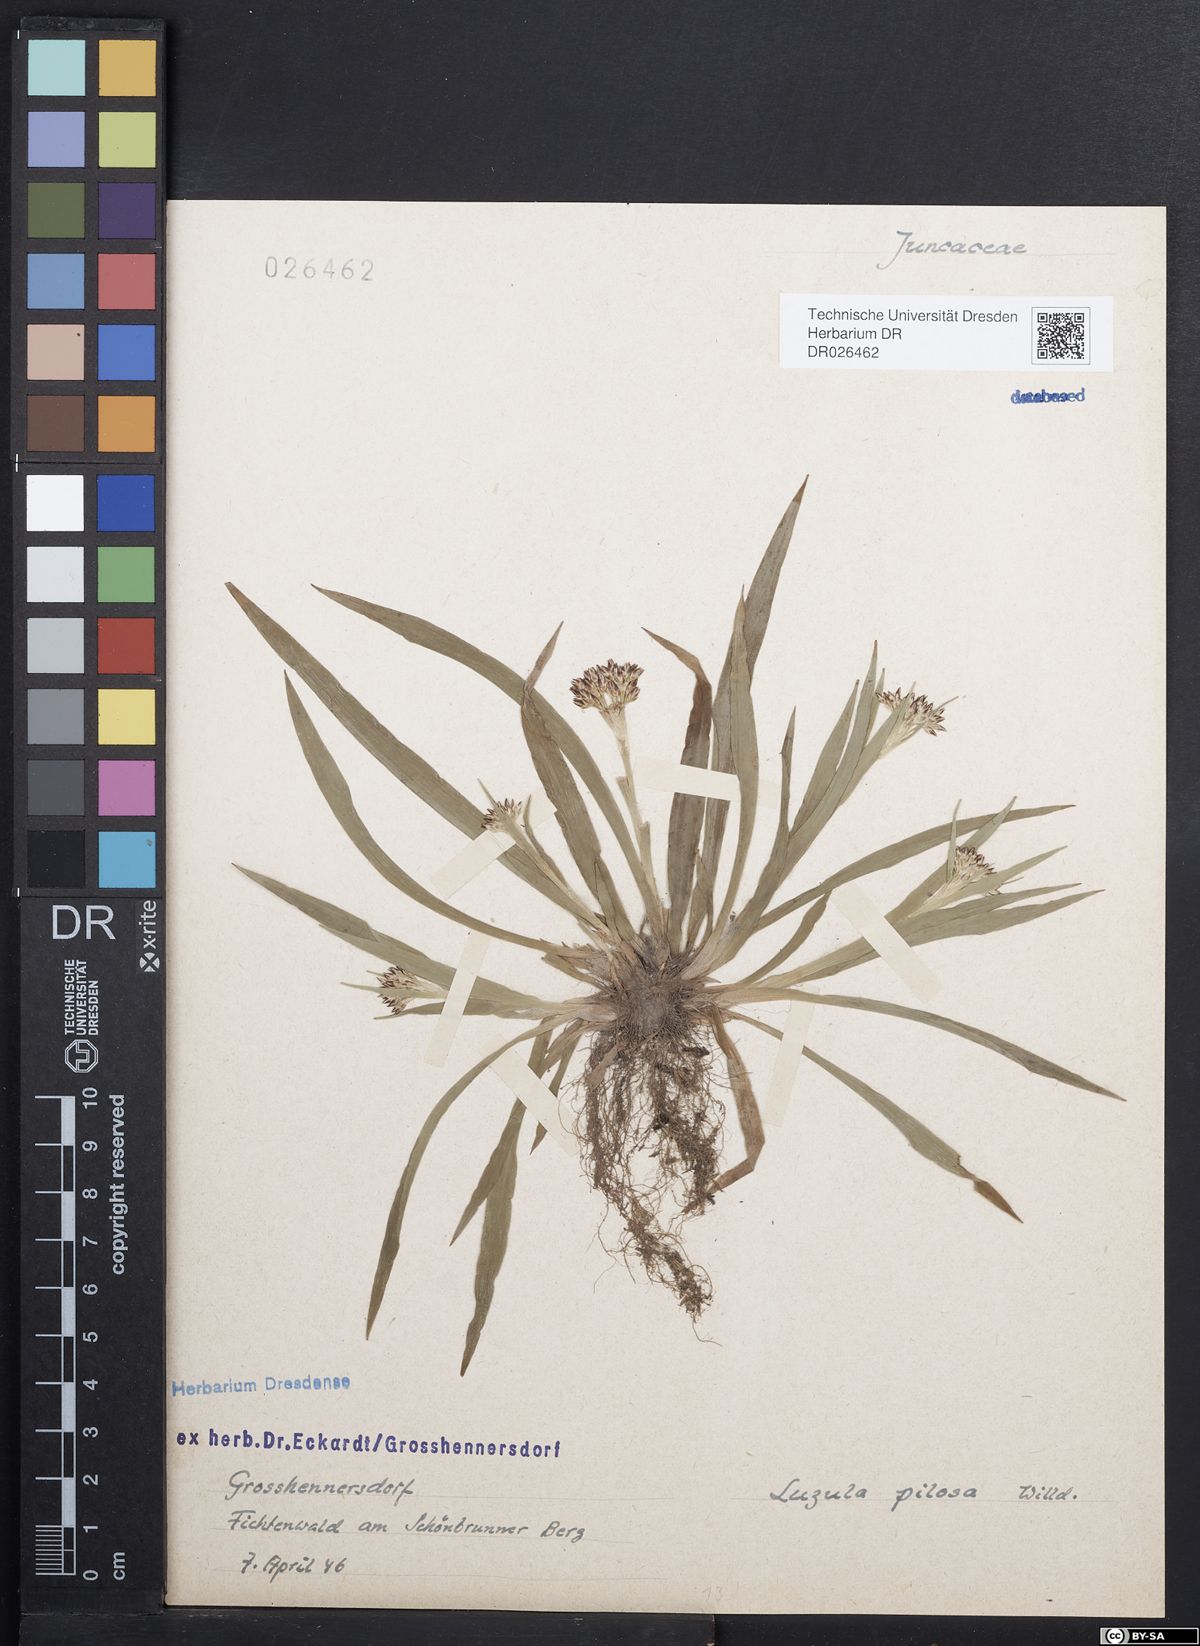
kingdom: Plantae
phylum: Tracheophyta
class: Liliopsida
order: Poales
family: Juncaceae
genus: Luzula
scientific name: Luzula pilosa
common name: Hairy wood-rush
